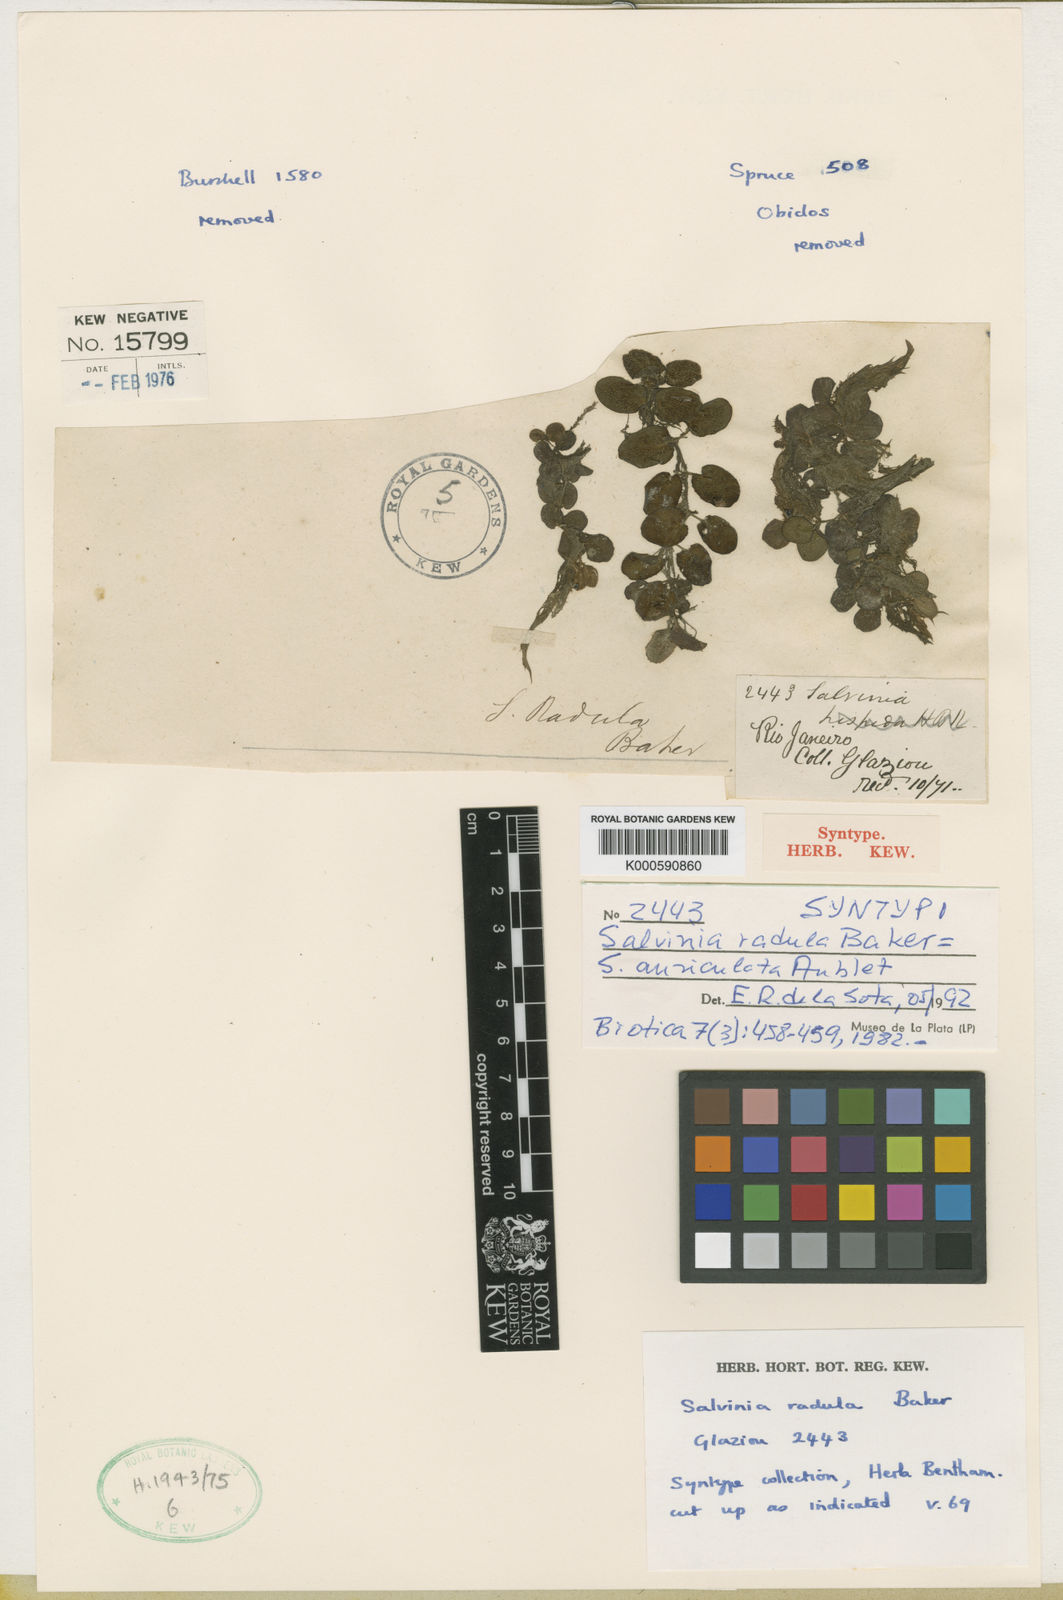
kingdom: Plantae
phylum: Tracheophyta
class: Polypodiopsida
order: Salviniales
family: Salviniaceae
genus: Salvinia
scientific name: Salvinia auriculata
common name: African payal
